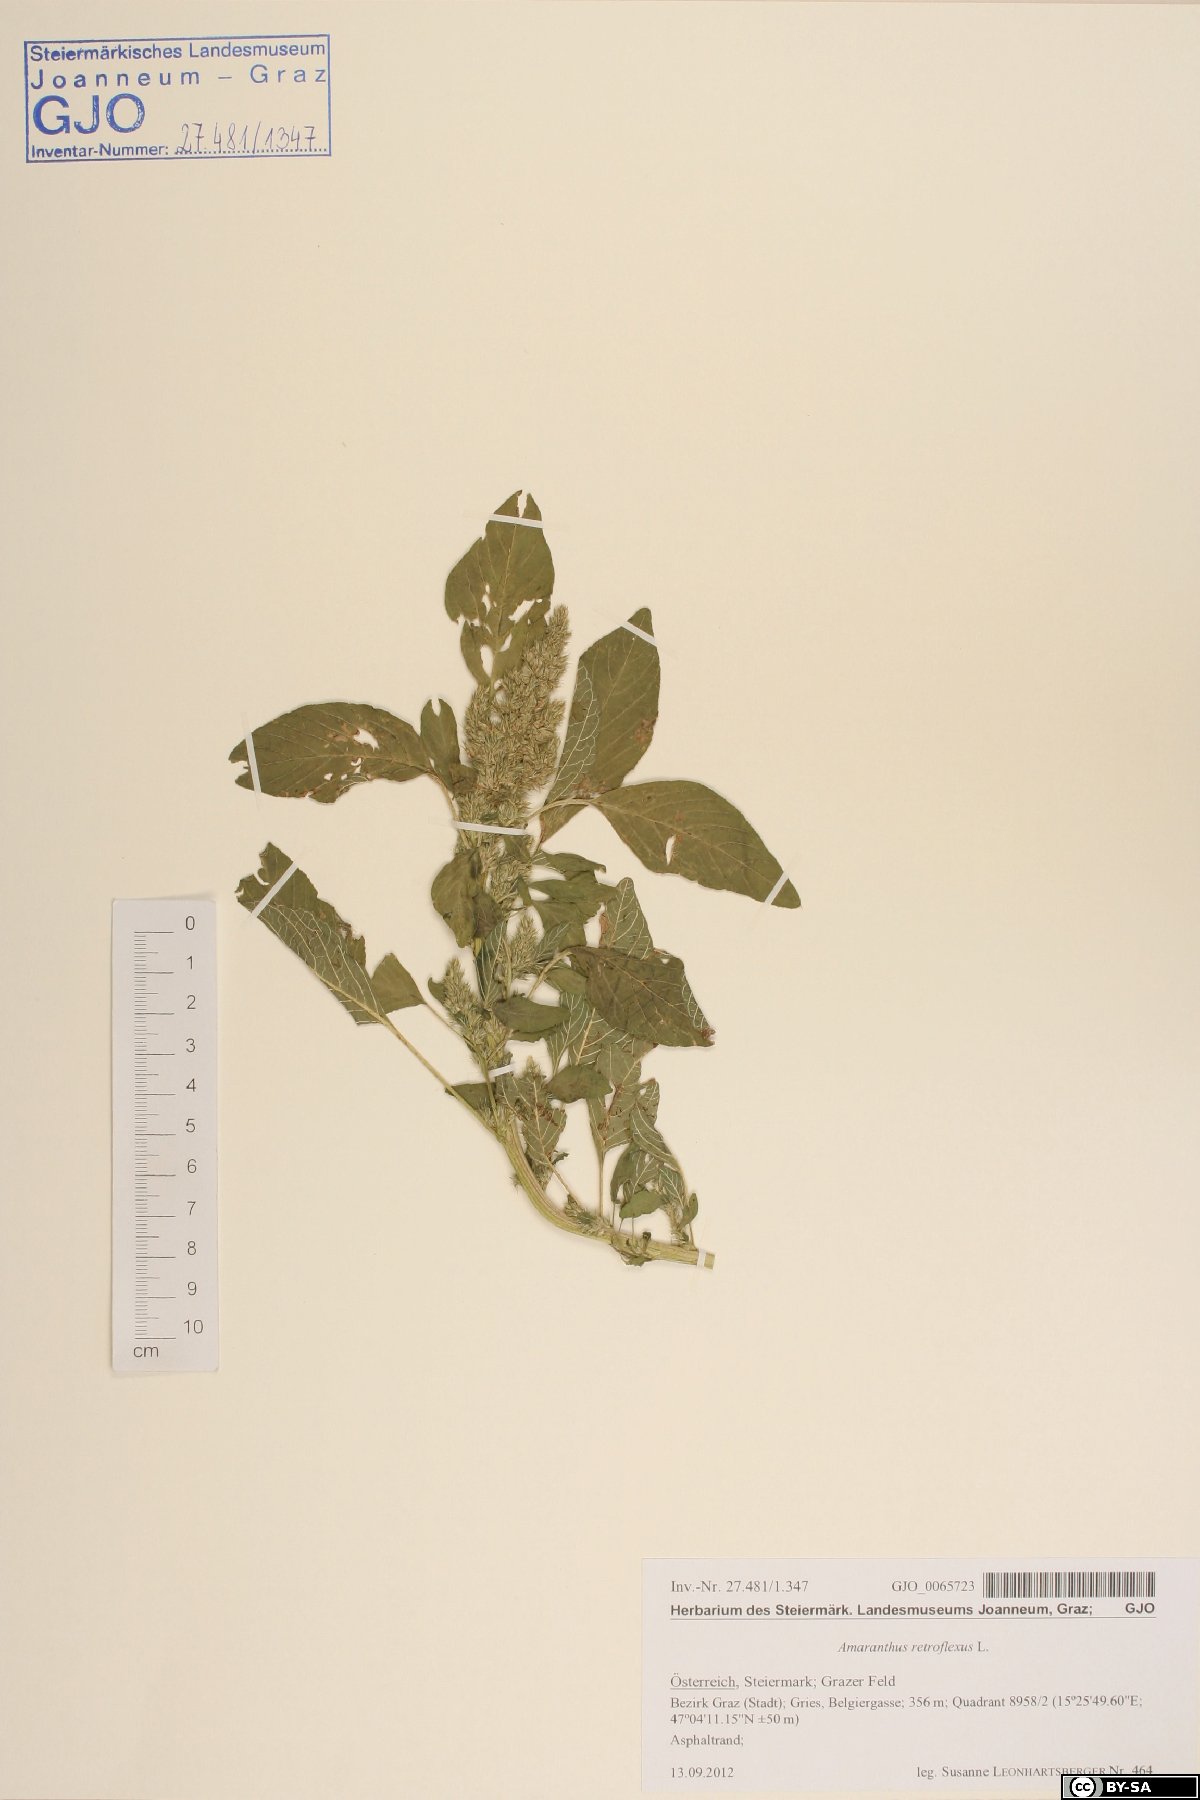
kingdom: Plantae
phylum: Tracheophyta
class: Magnoliopsida
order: Caryophyllales
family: Amaranthaceae
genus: Amaranthus
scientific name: Amaranthus retroflexus
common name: Redroot amaranth
